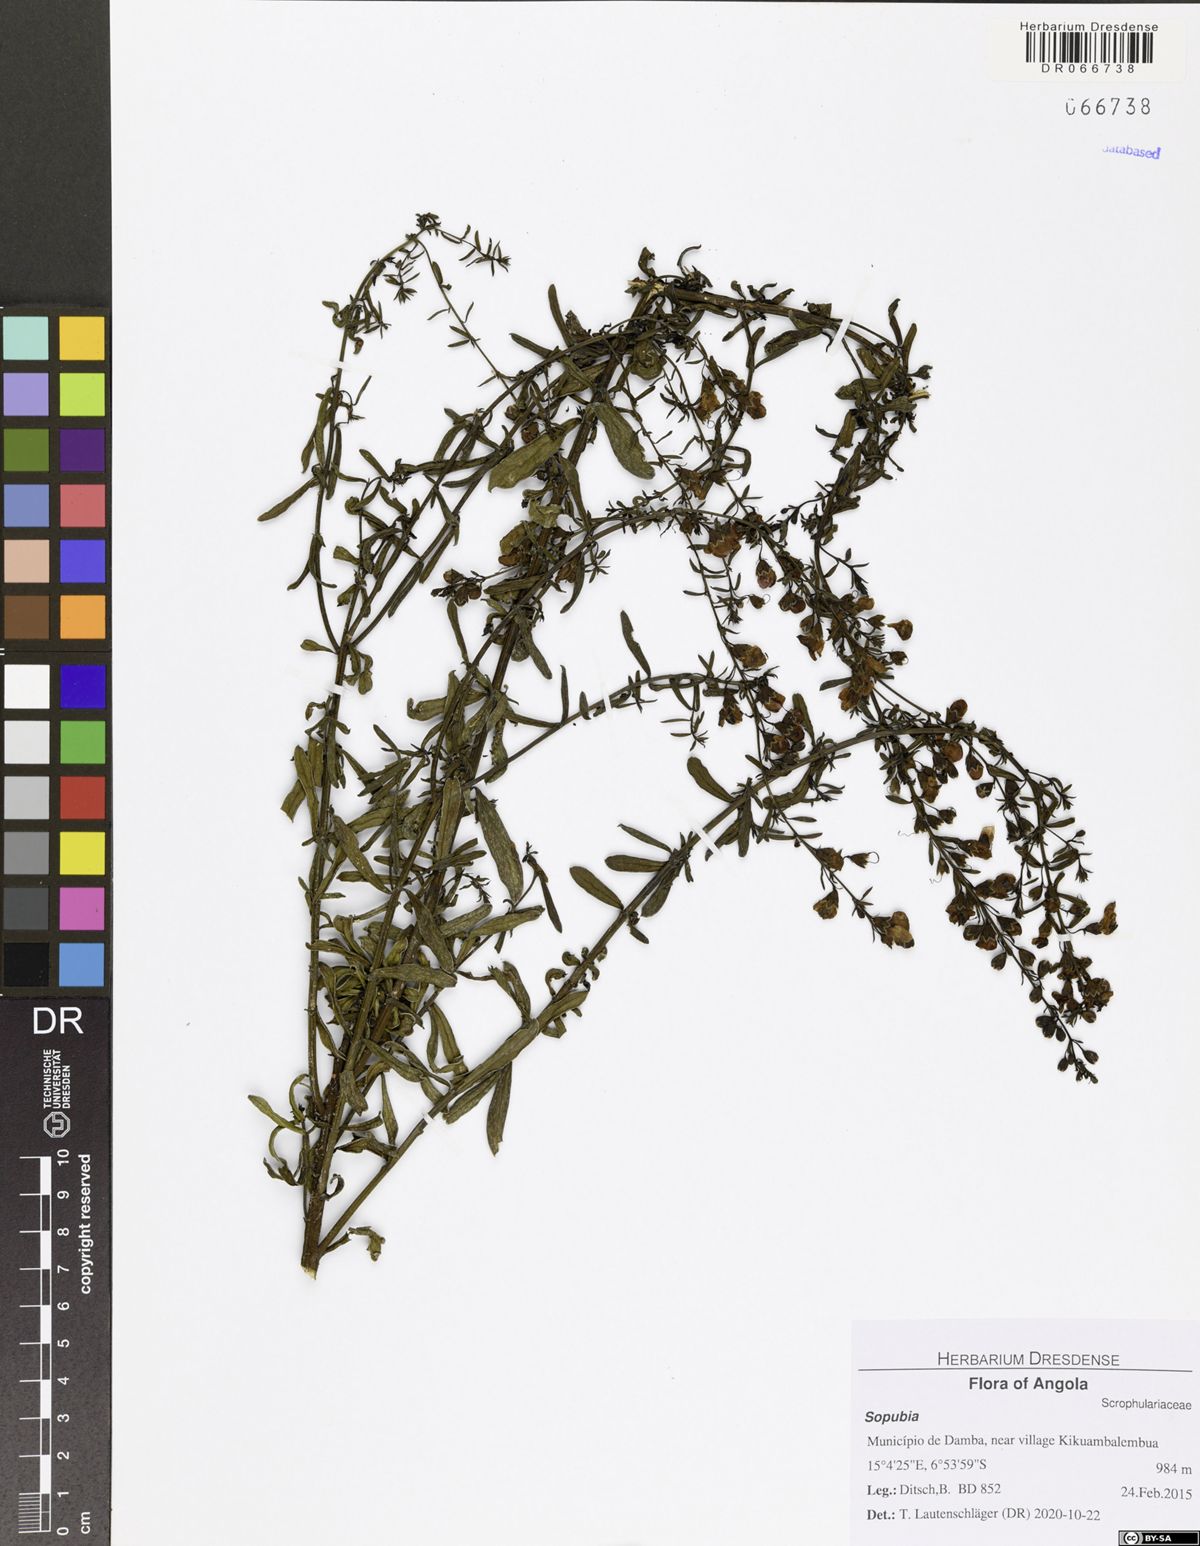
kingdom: Plantae
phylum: Tracheophyta
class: Magnoliopsida
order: Lamiales
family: Orobanchaceae
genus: Sopubia
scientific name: Sopubia ramosa
